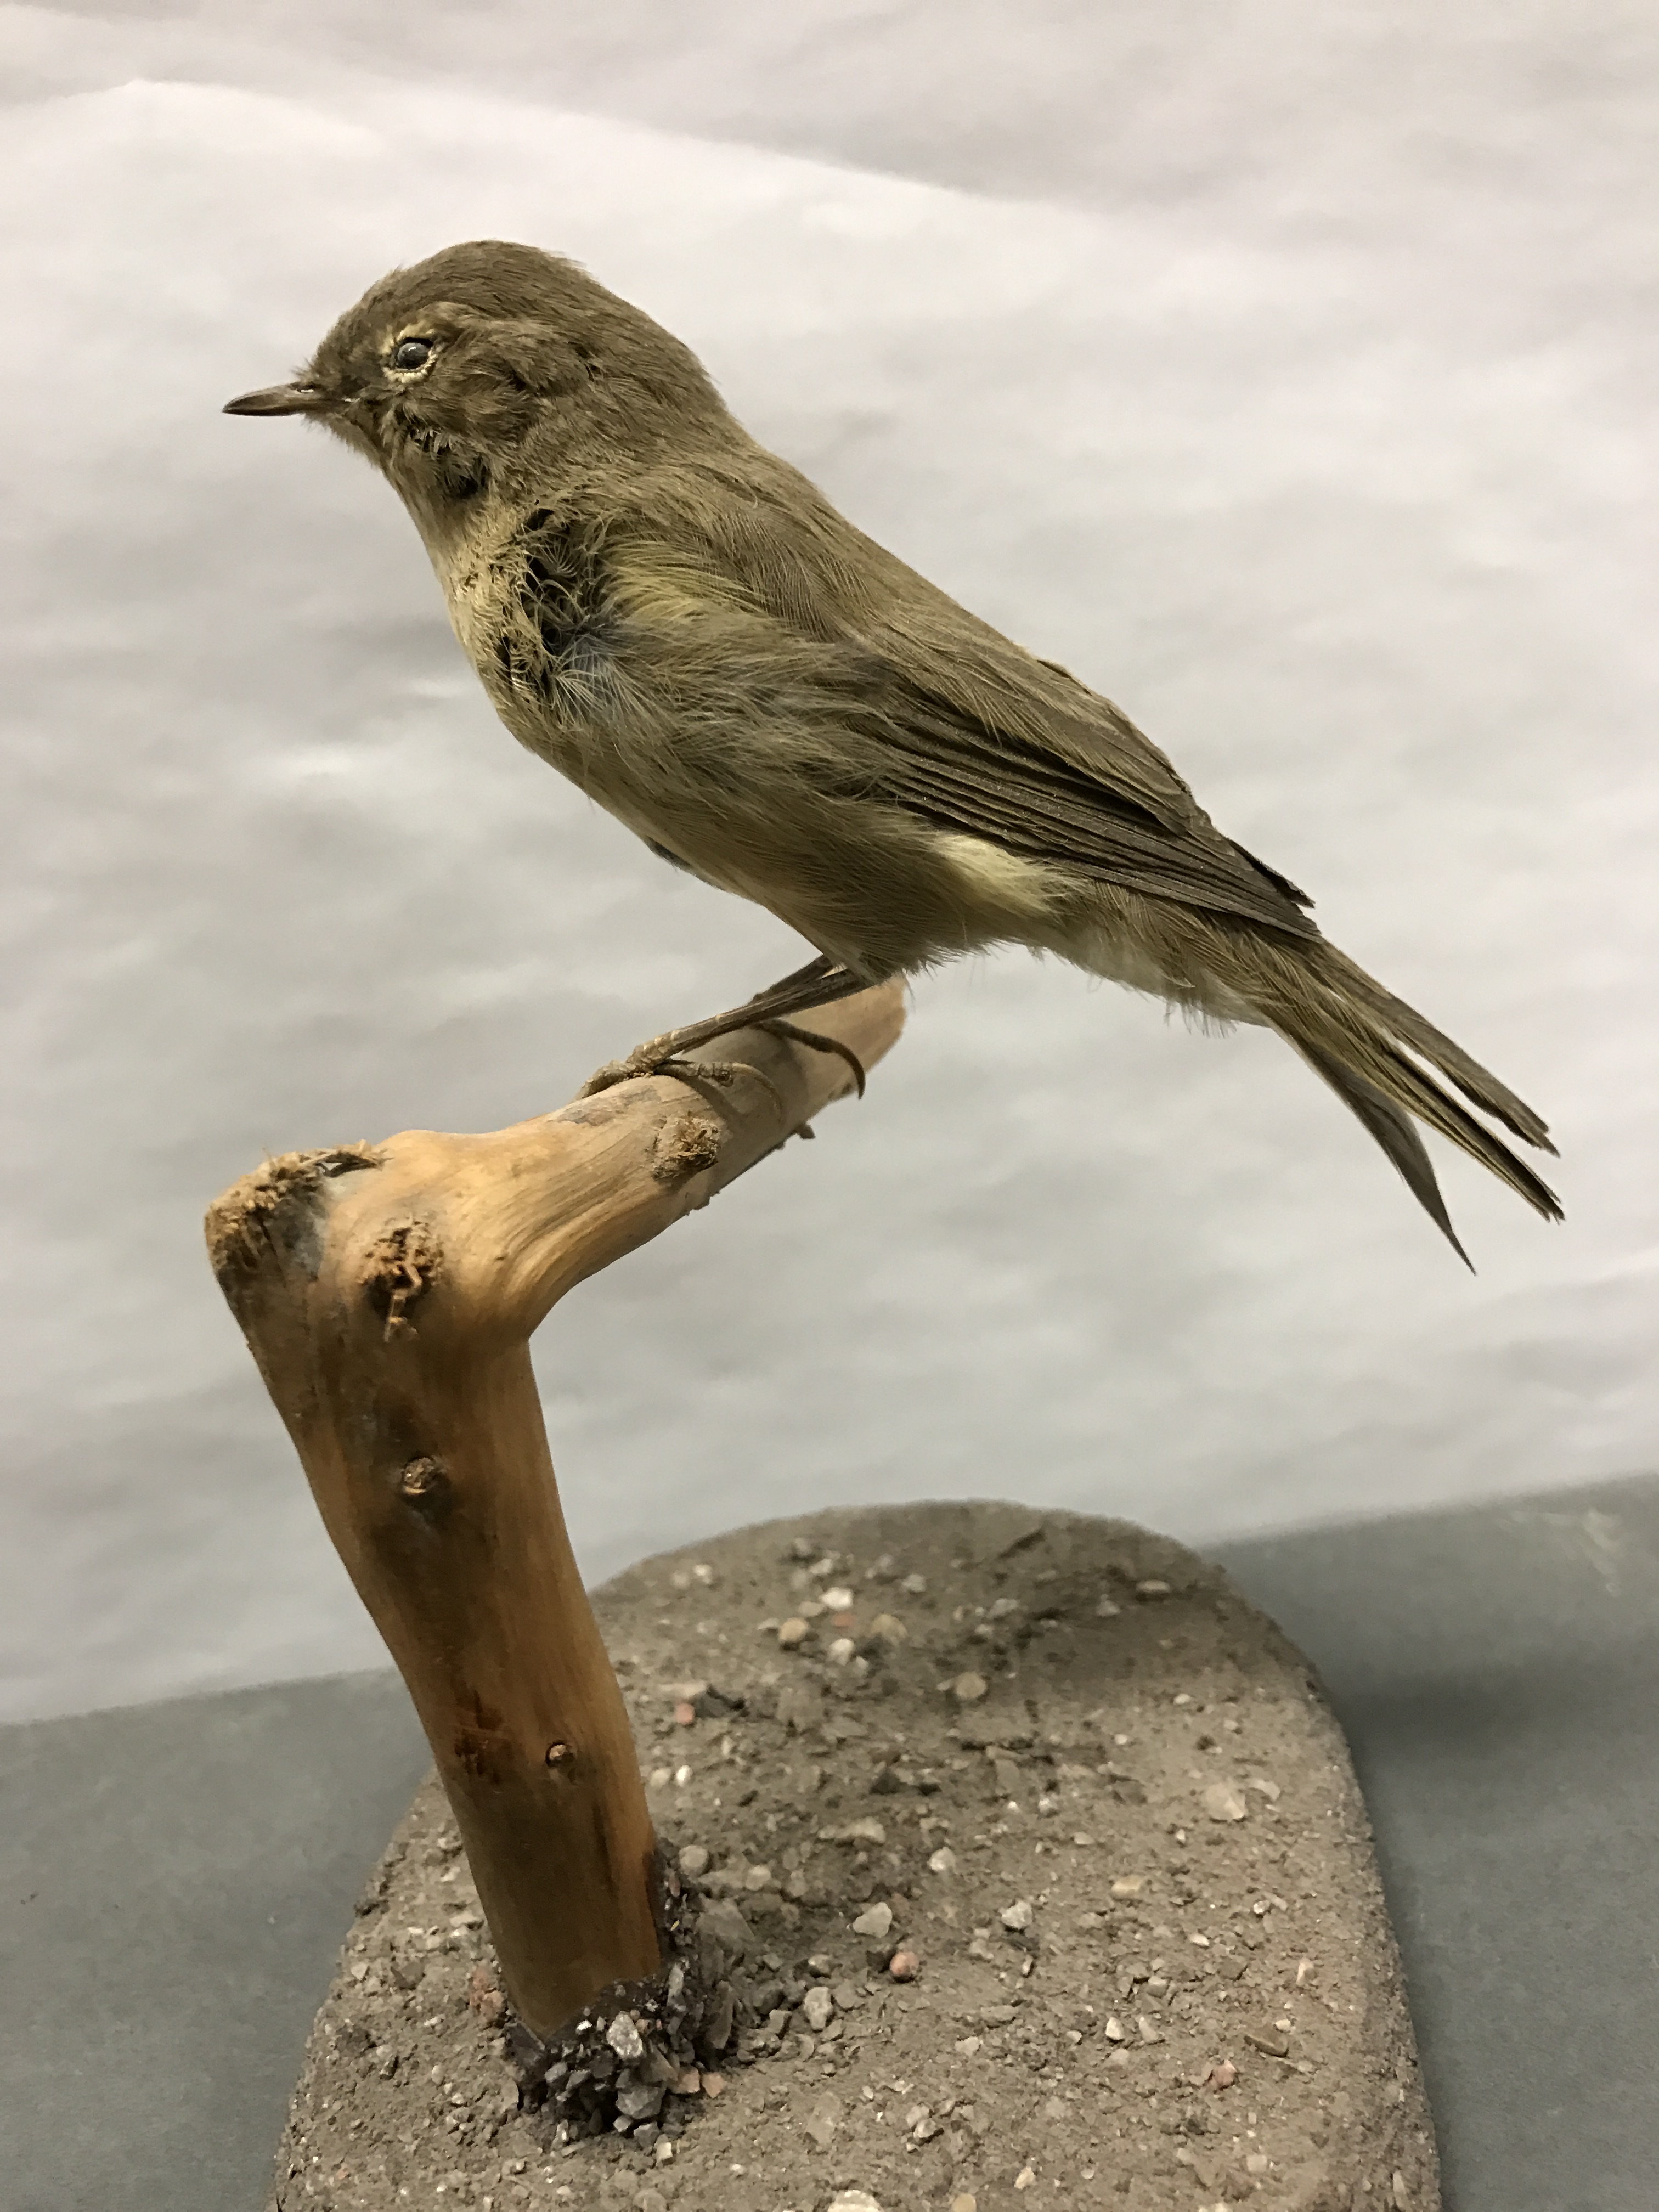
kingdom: Animalia
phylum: Chordata
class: Aves
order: Passeriformes
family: Phylloscopidae
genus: Phylloscopus
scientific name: Phylloscopus fuscatus
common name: Dusky warbler
